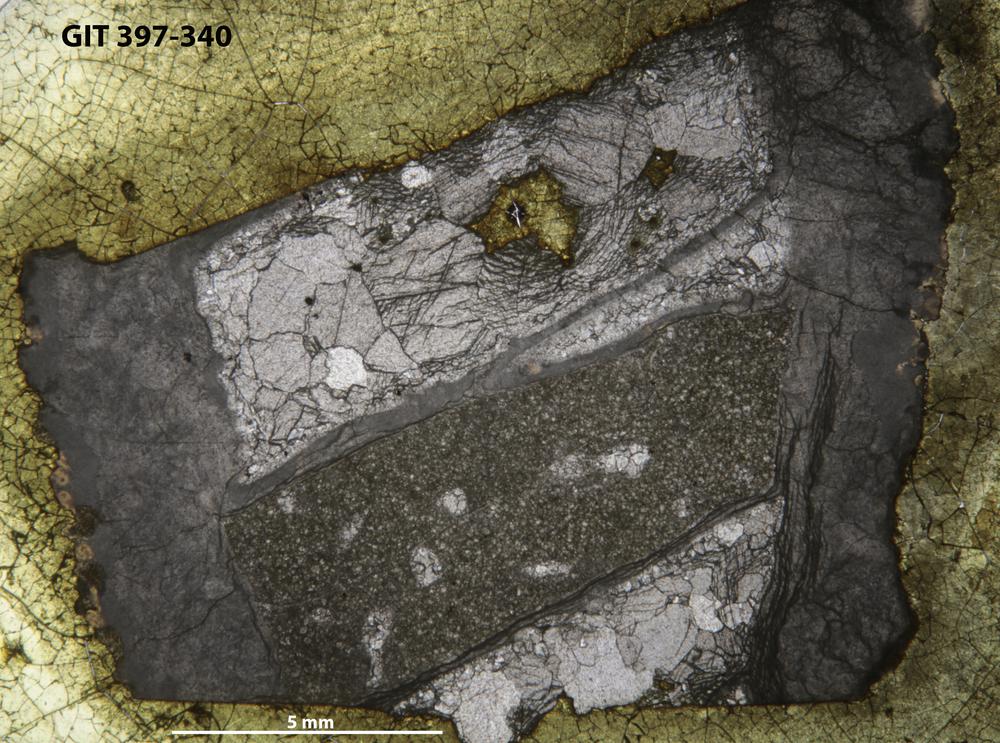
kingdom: Animalia
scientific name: Animalia
